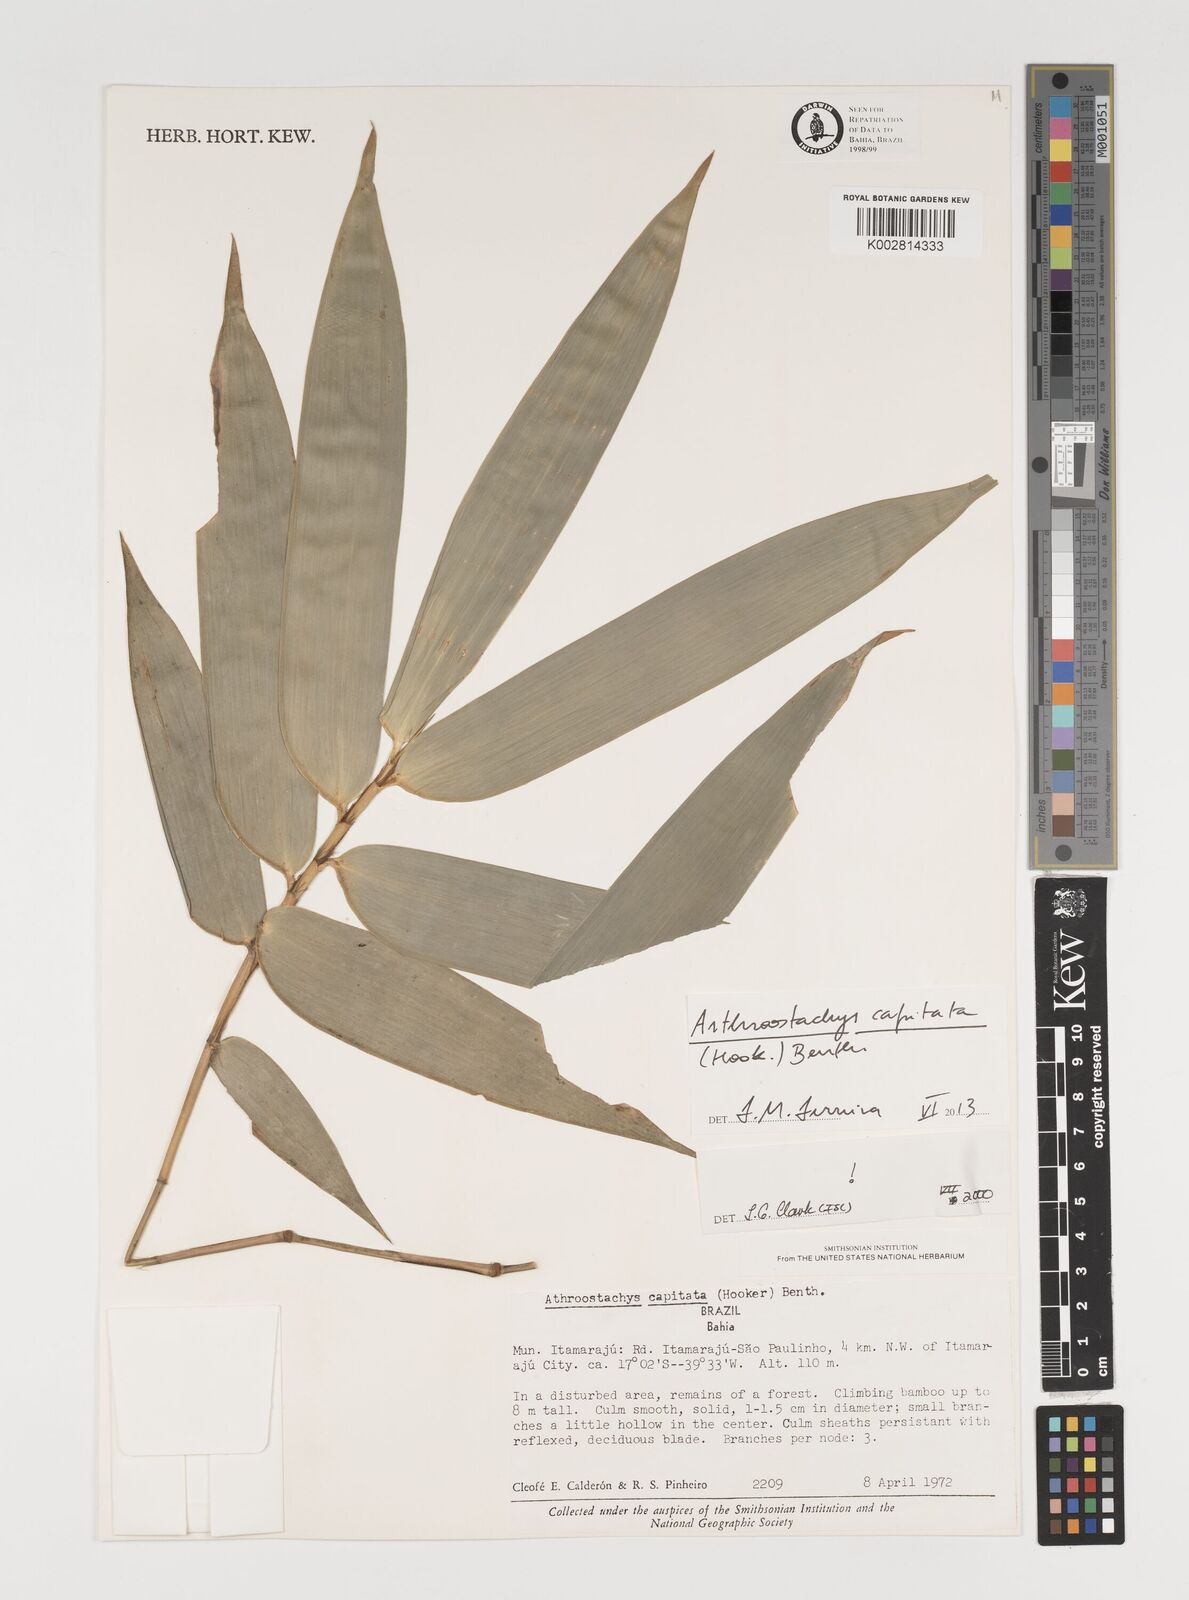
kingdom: Plantae
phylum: Tracheophyta
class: Liliopsida
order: Poales
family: Poaceae
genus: Athroostachys
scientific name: Athroostachys capitata
